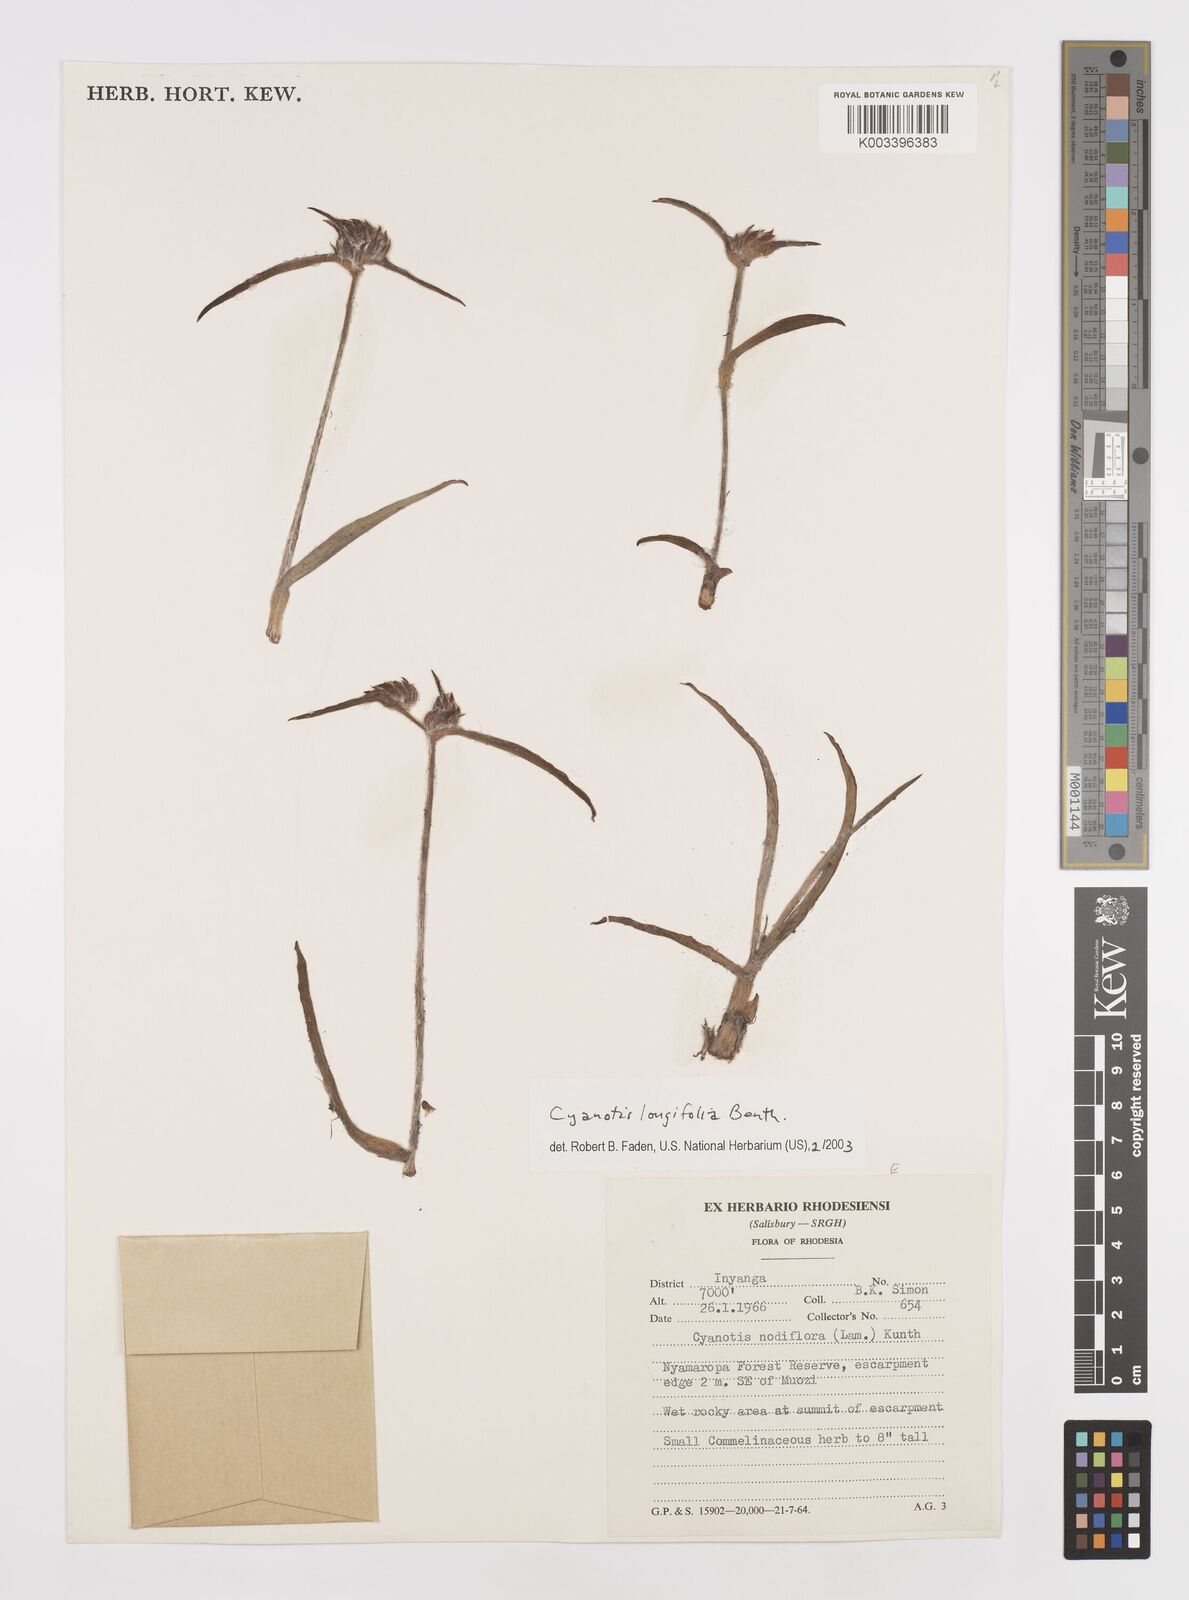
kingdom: Plantae
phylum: Tracheophyta
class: Liliopsida
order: Commelinales
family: Commelinaceae
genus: Cyanotis
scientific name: Cyanotis longifolia
